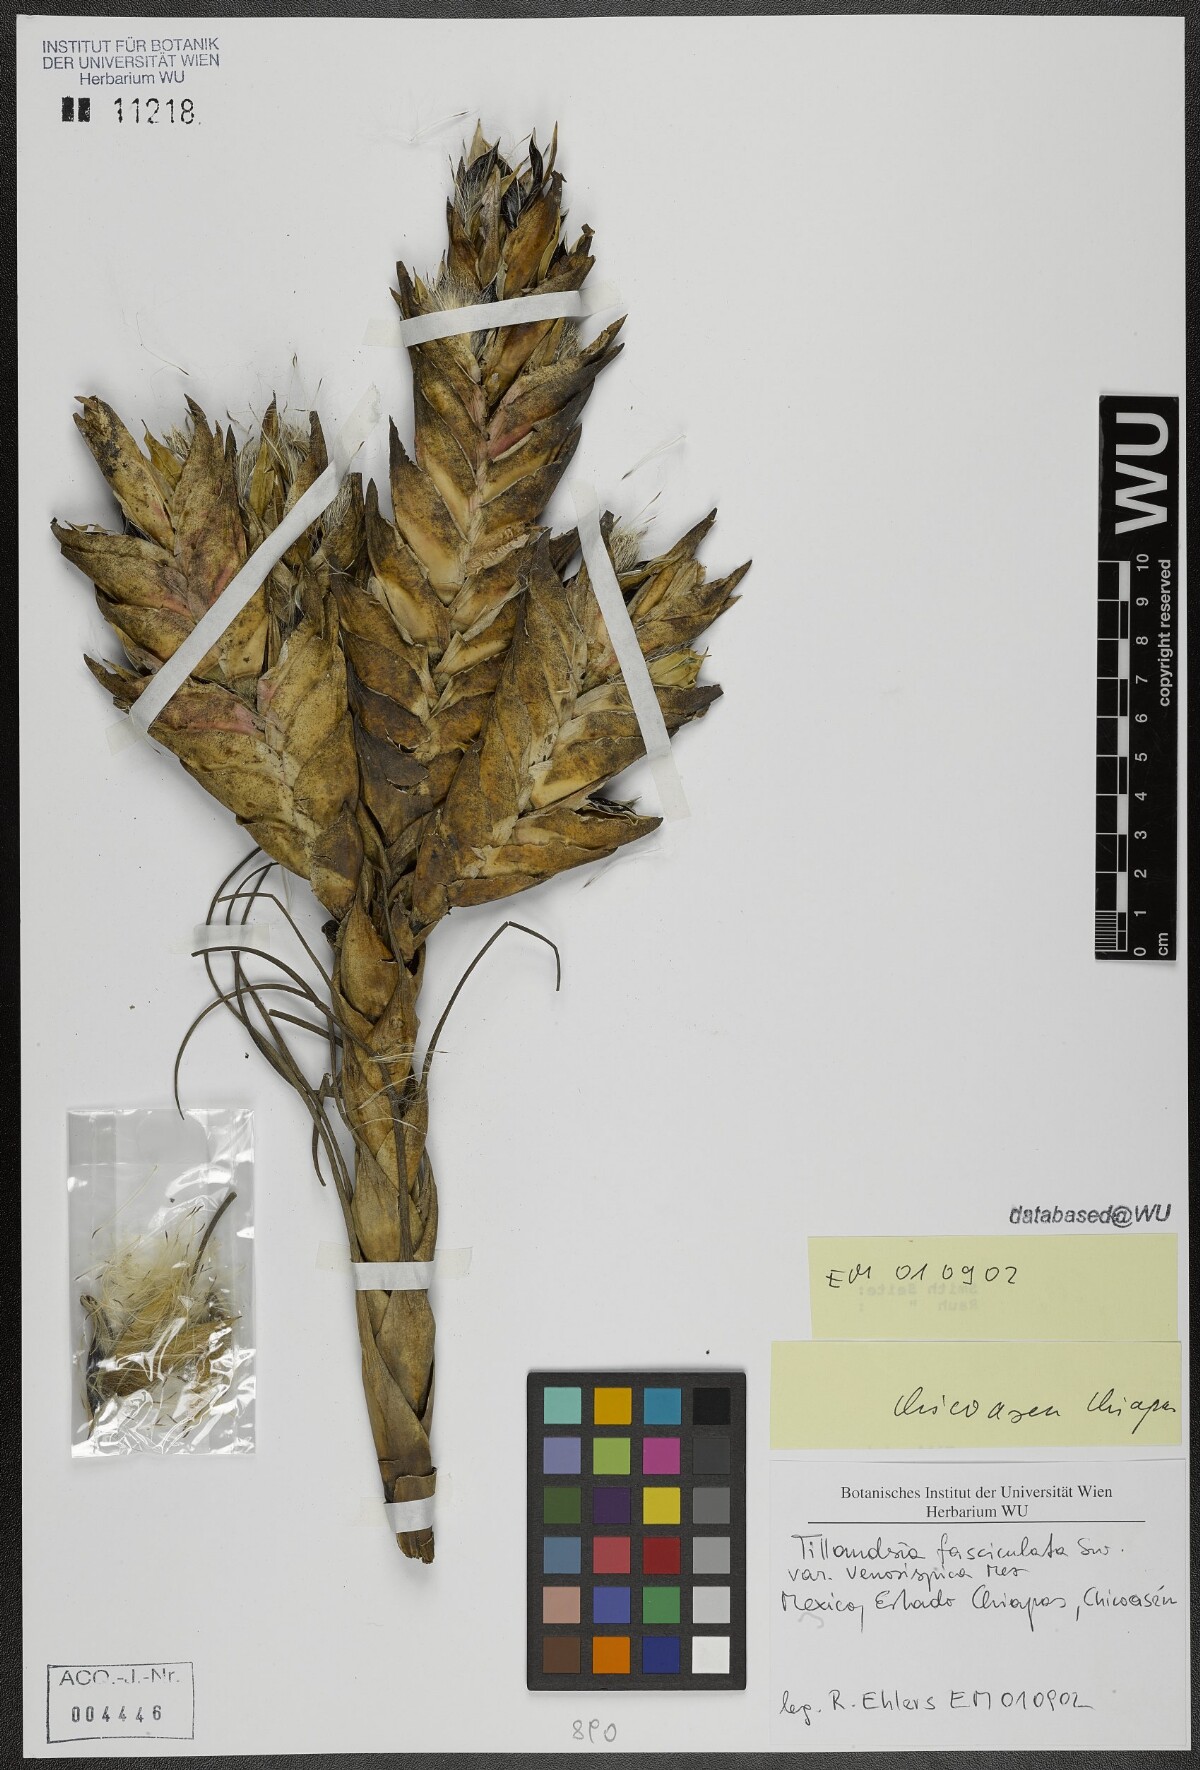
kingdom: Plantae
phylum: Tracheophyta
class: Liliopsida
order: Poales
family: Bromeliaceae
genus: Tillandsia
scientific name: Tillandsia compressa
